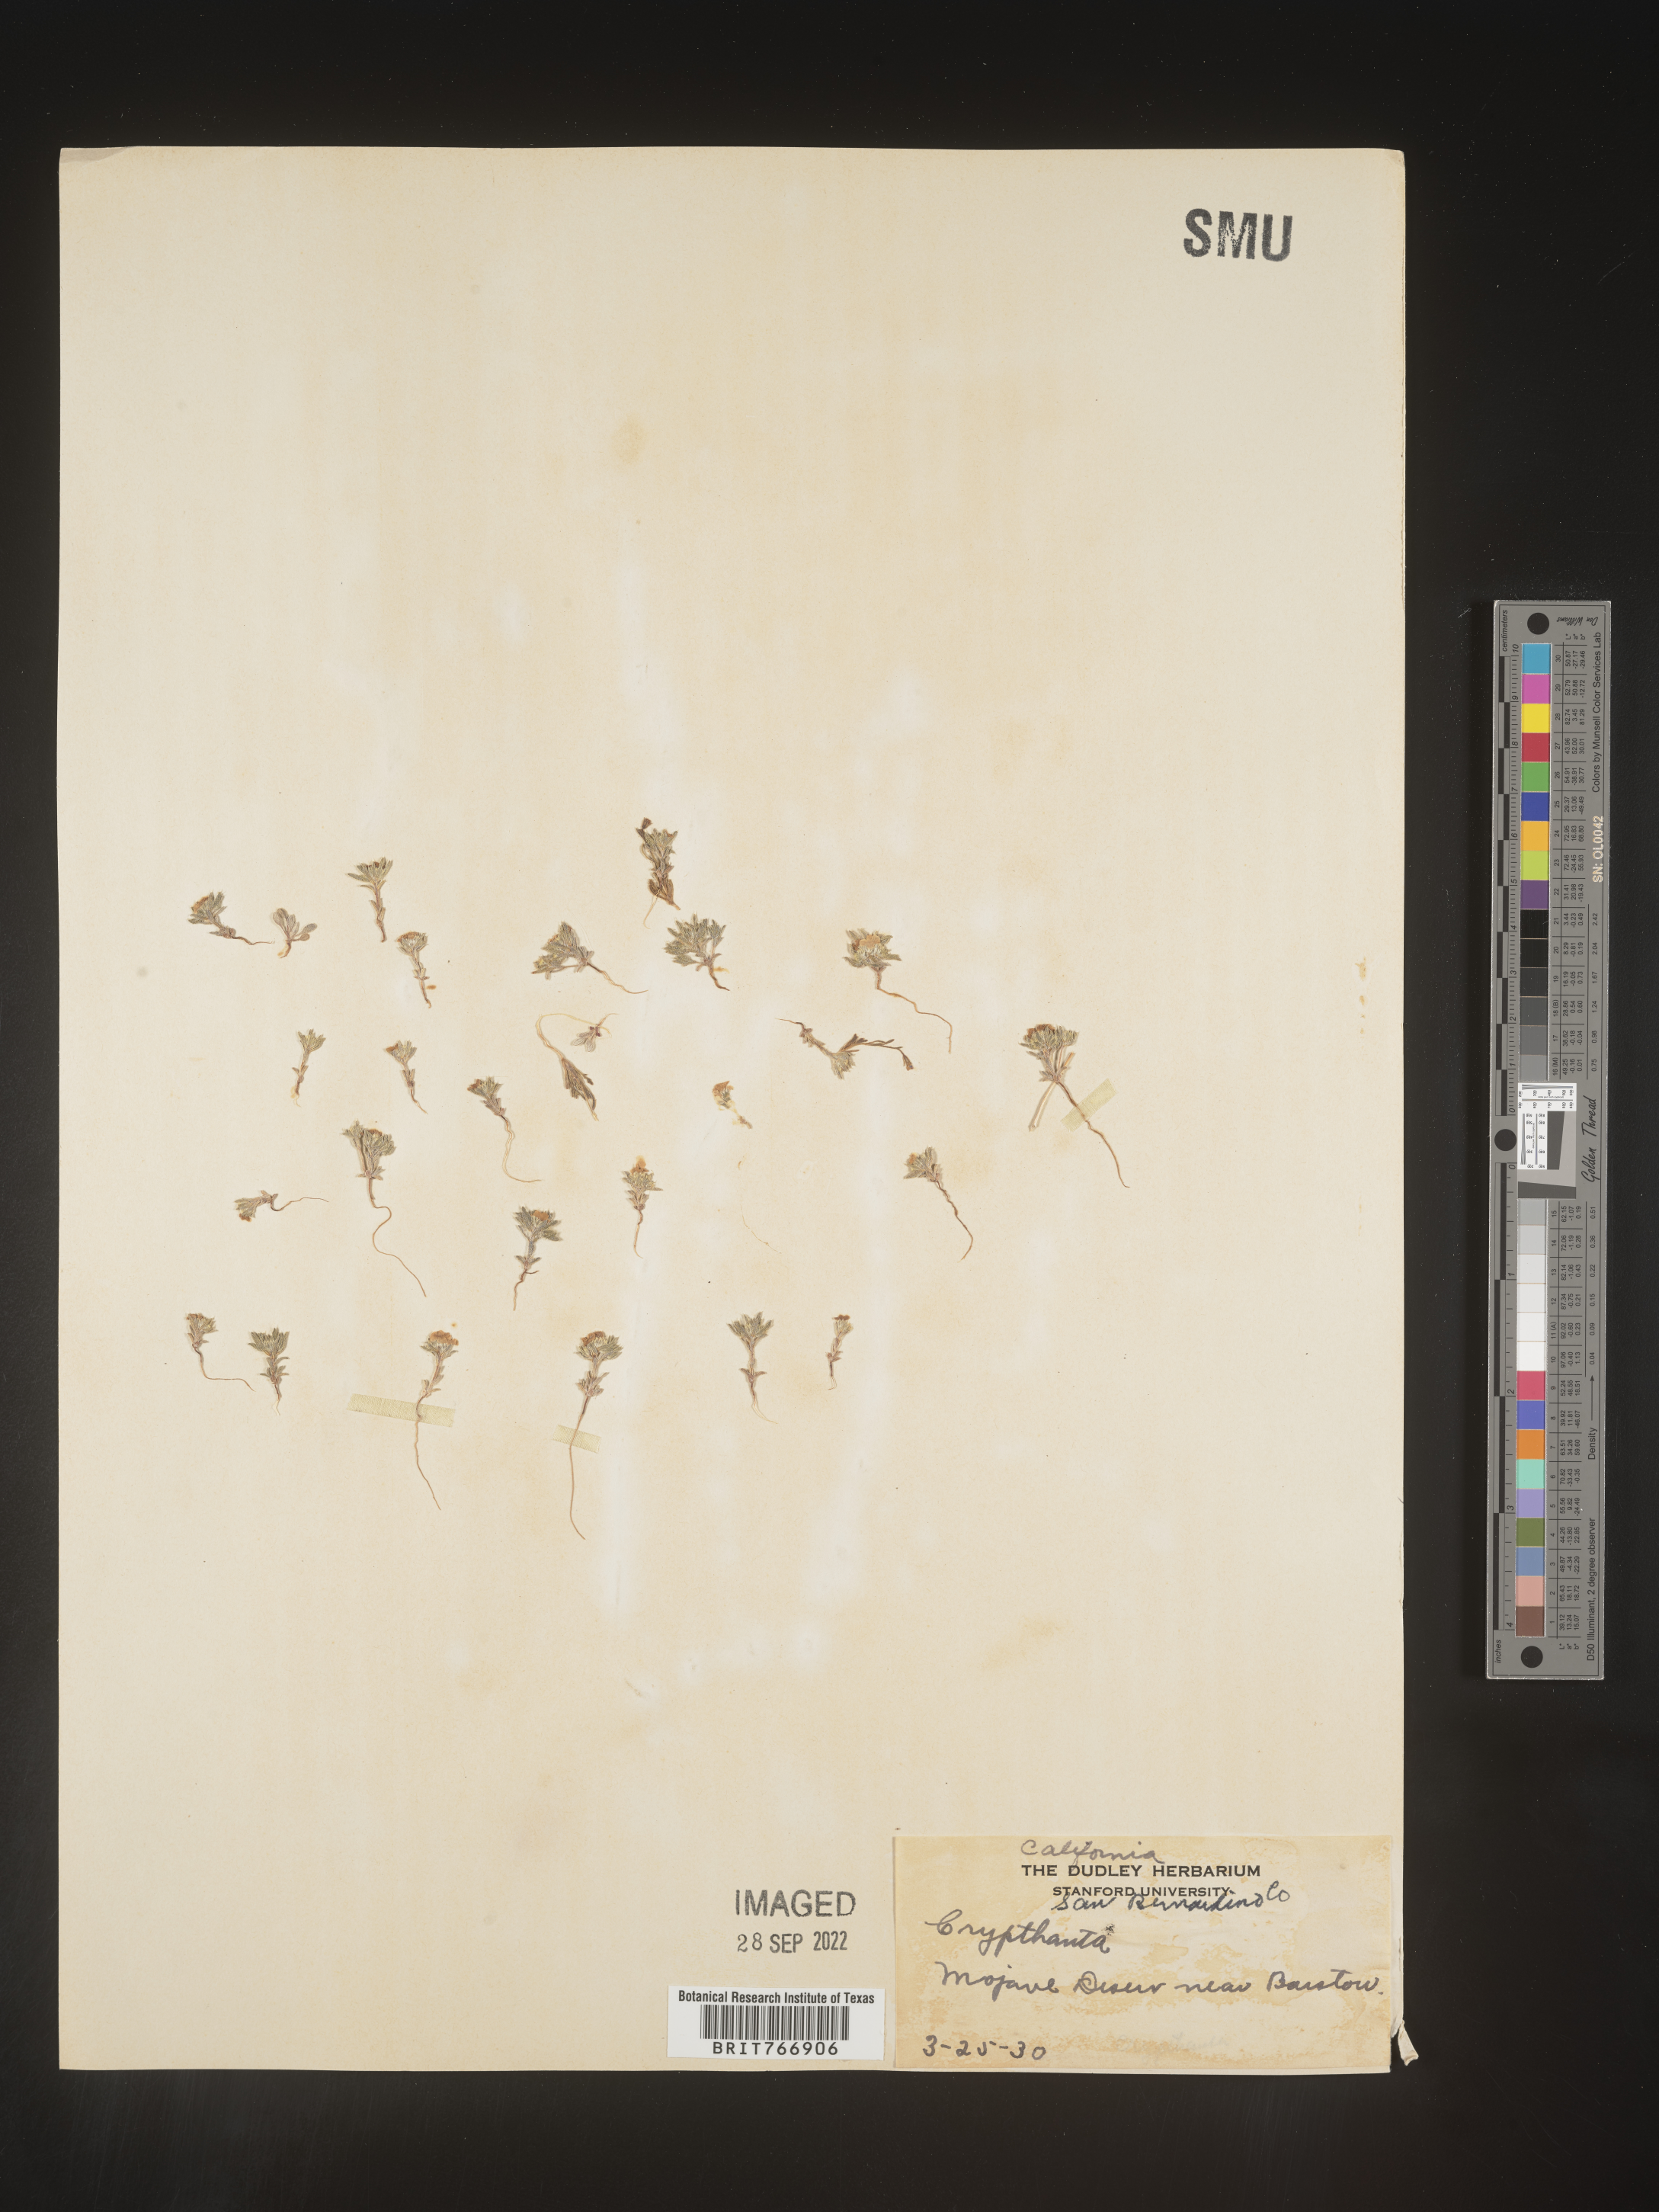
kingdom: Plantae
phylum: Tracheophyta
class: Magnoliopsida
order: Boraginales
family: Boraginaceae
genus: Cryptantha
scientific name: Cryptantha
